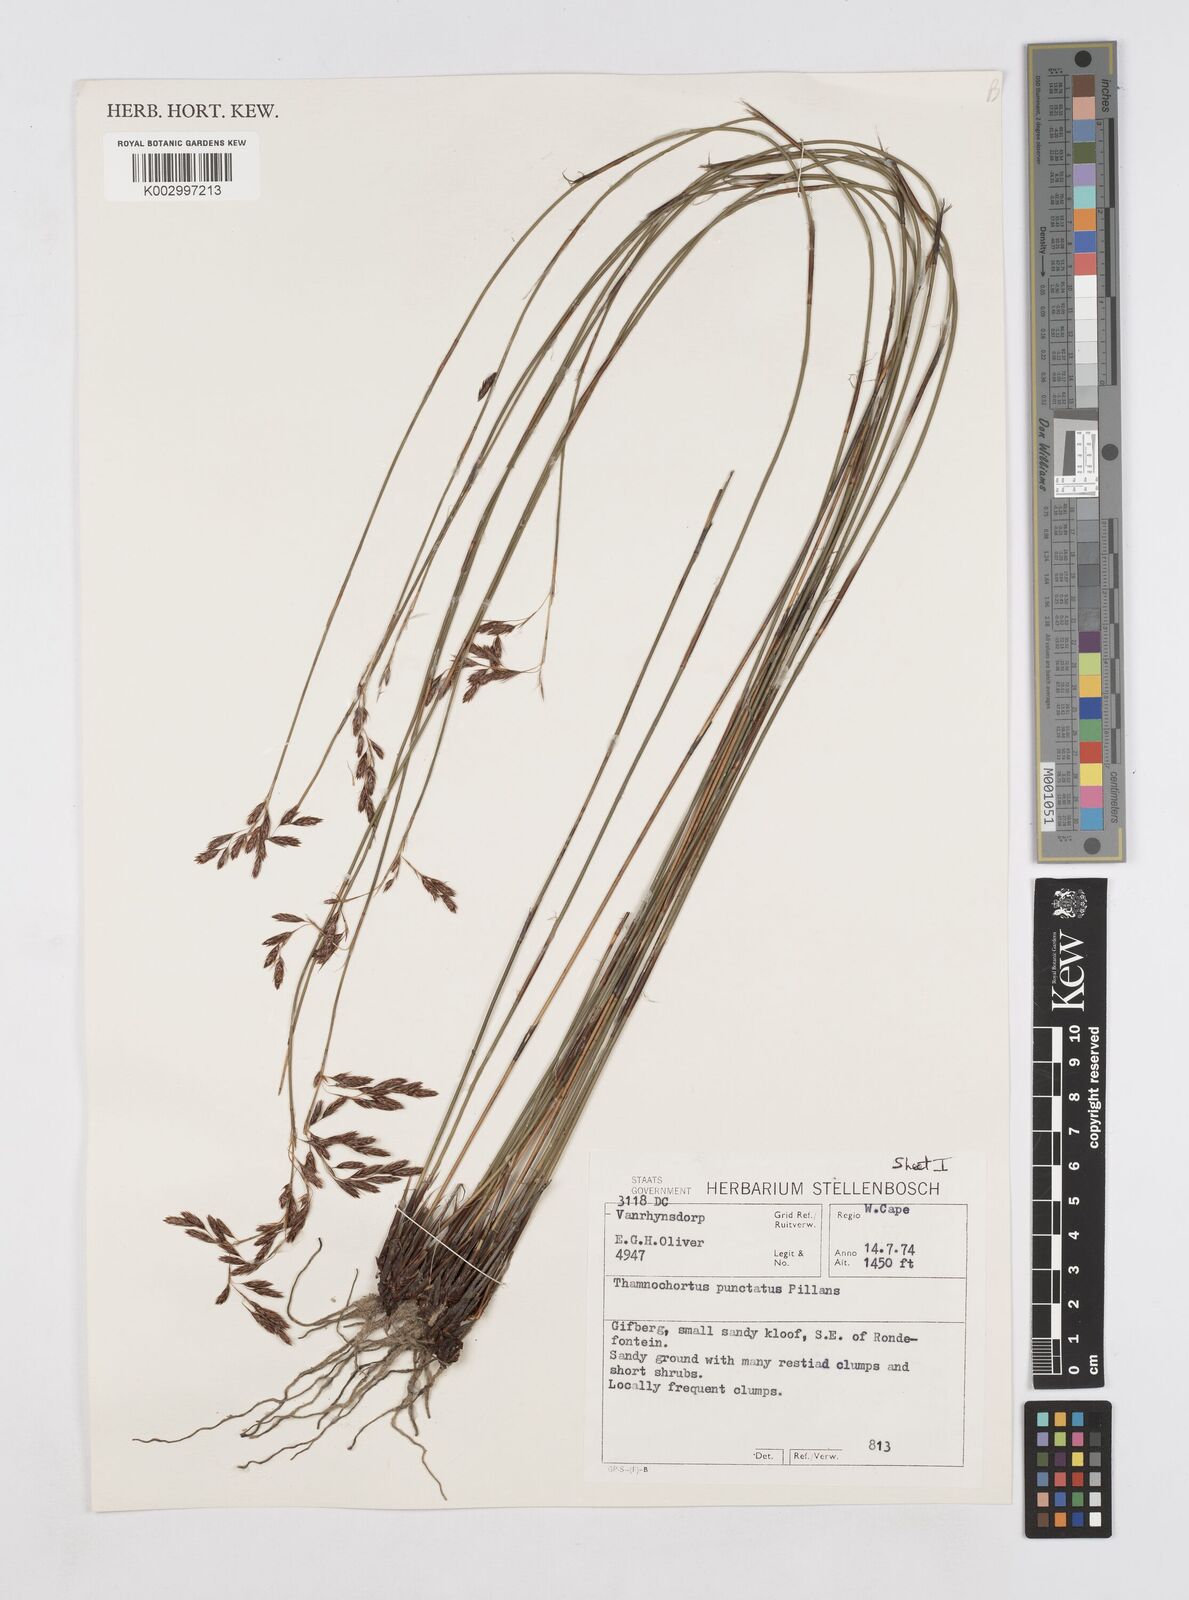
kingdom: Plantae
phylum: Tracheophyta
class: Liliopsida
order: Poales
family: Restionaceae
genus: Thamnochortus
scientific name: Thamnochortus punctatus
